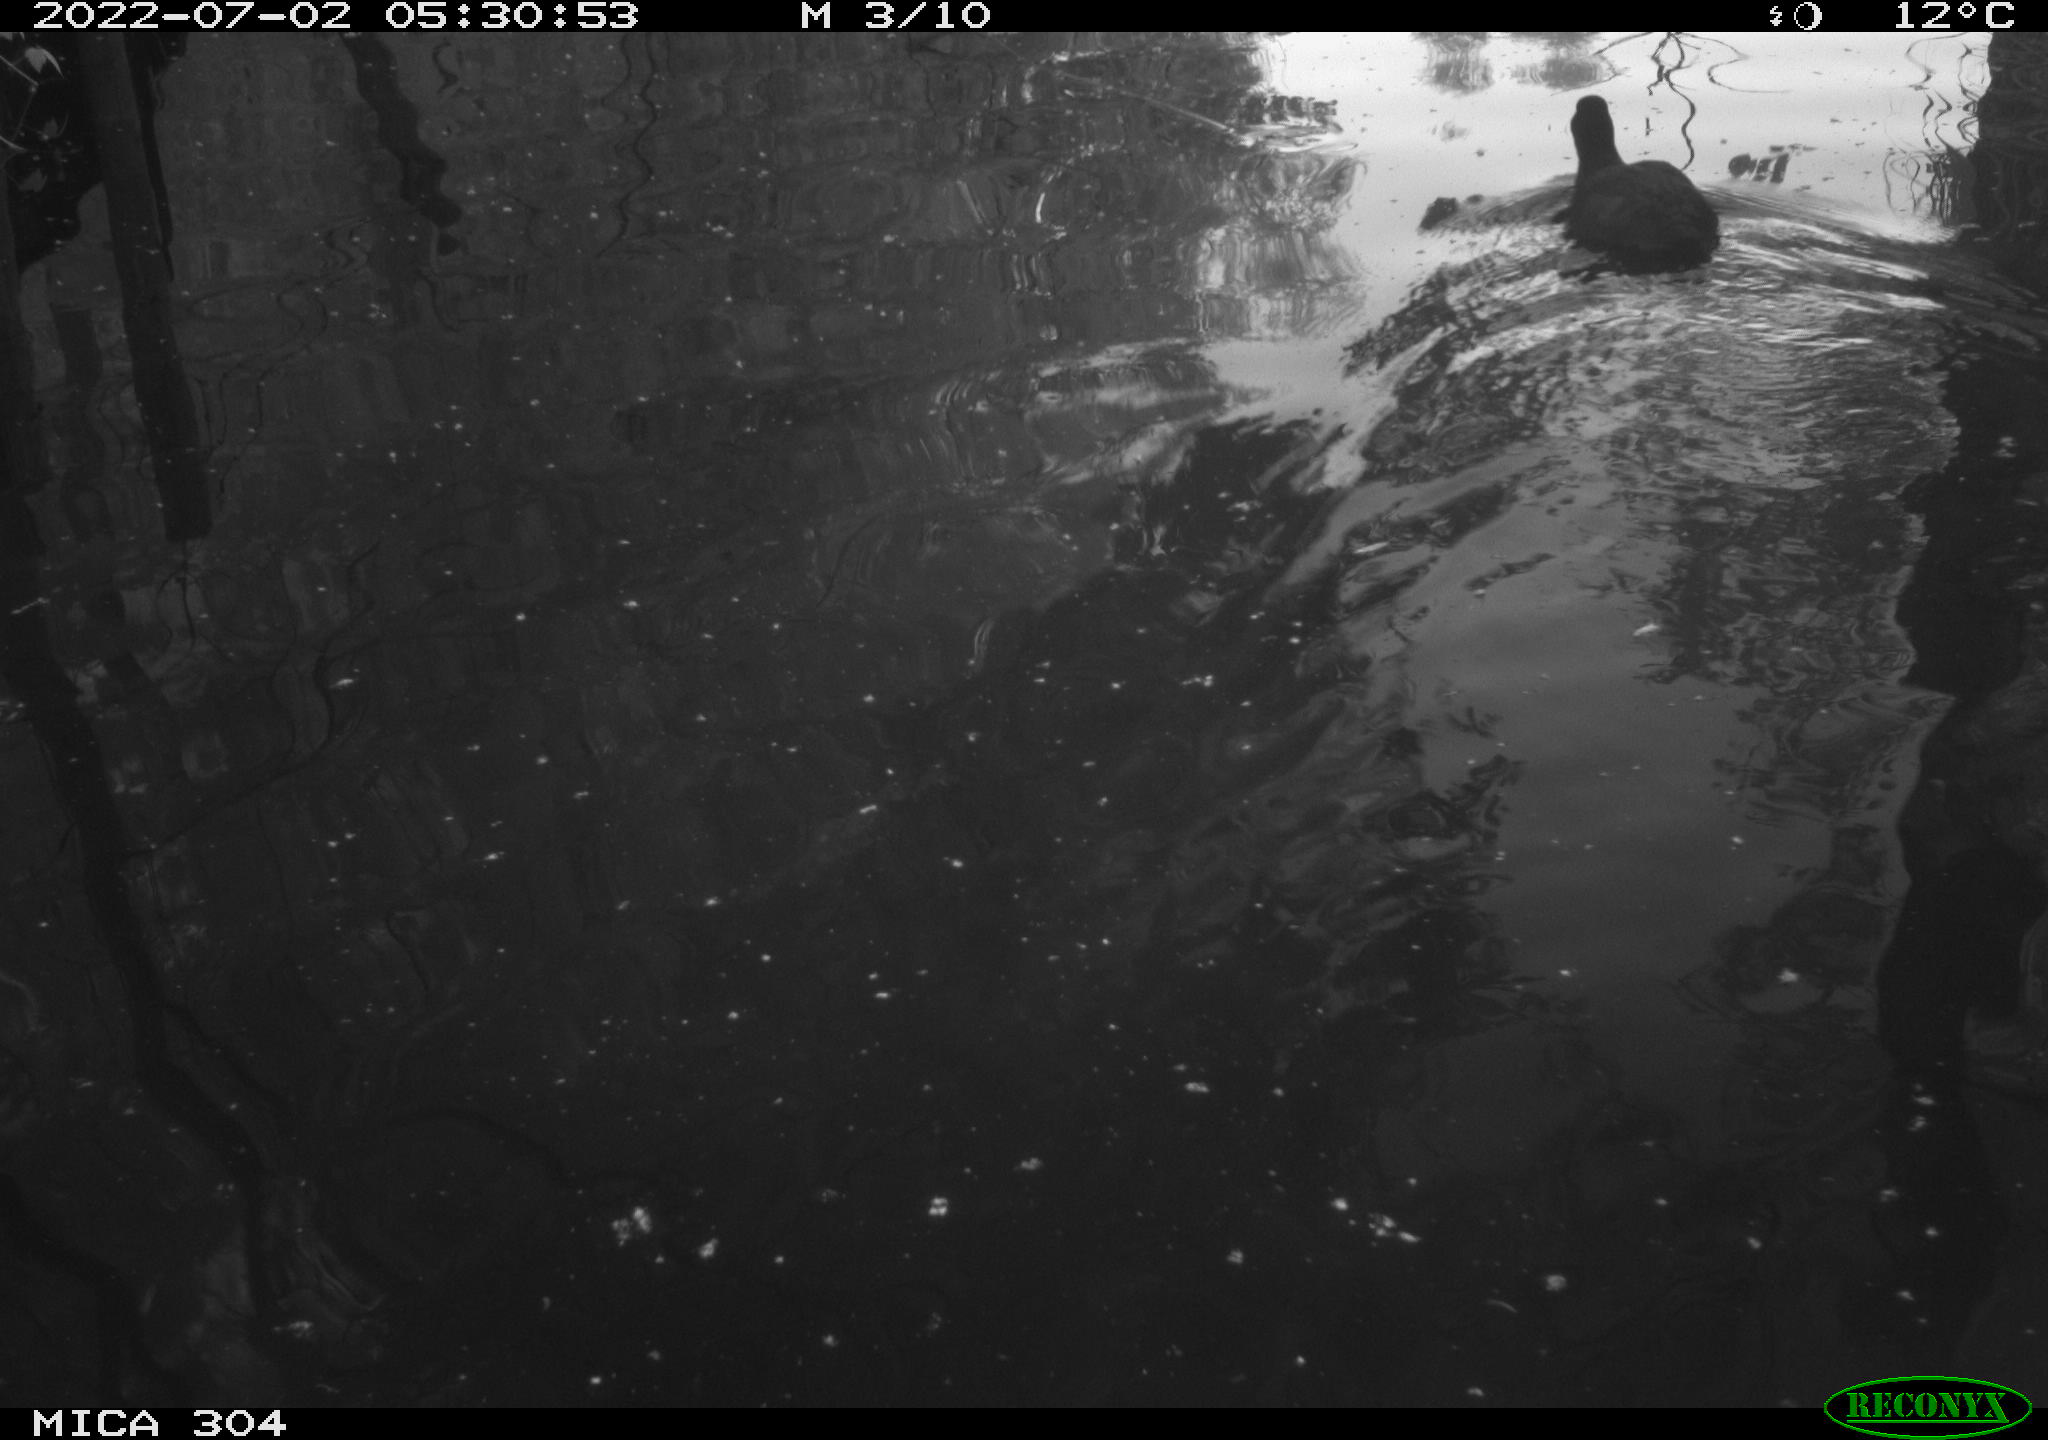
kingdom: Animalia
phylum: Chordata
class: Aves
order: Gruiformes
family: Rallidae
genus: Fulica
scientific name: Fulica atra
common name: Eurasian coot
